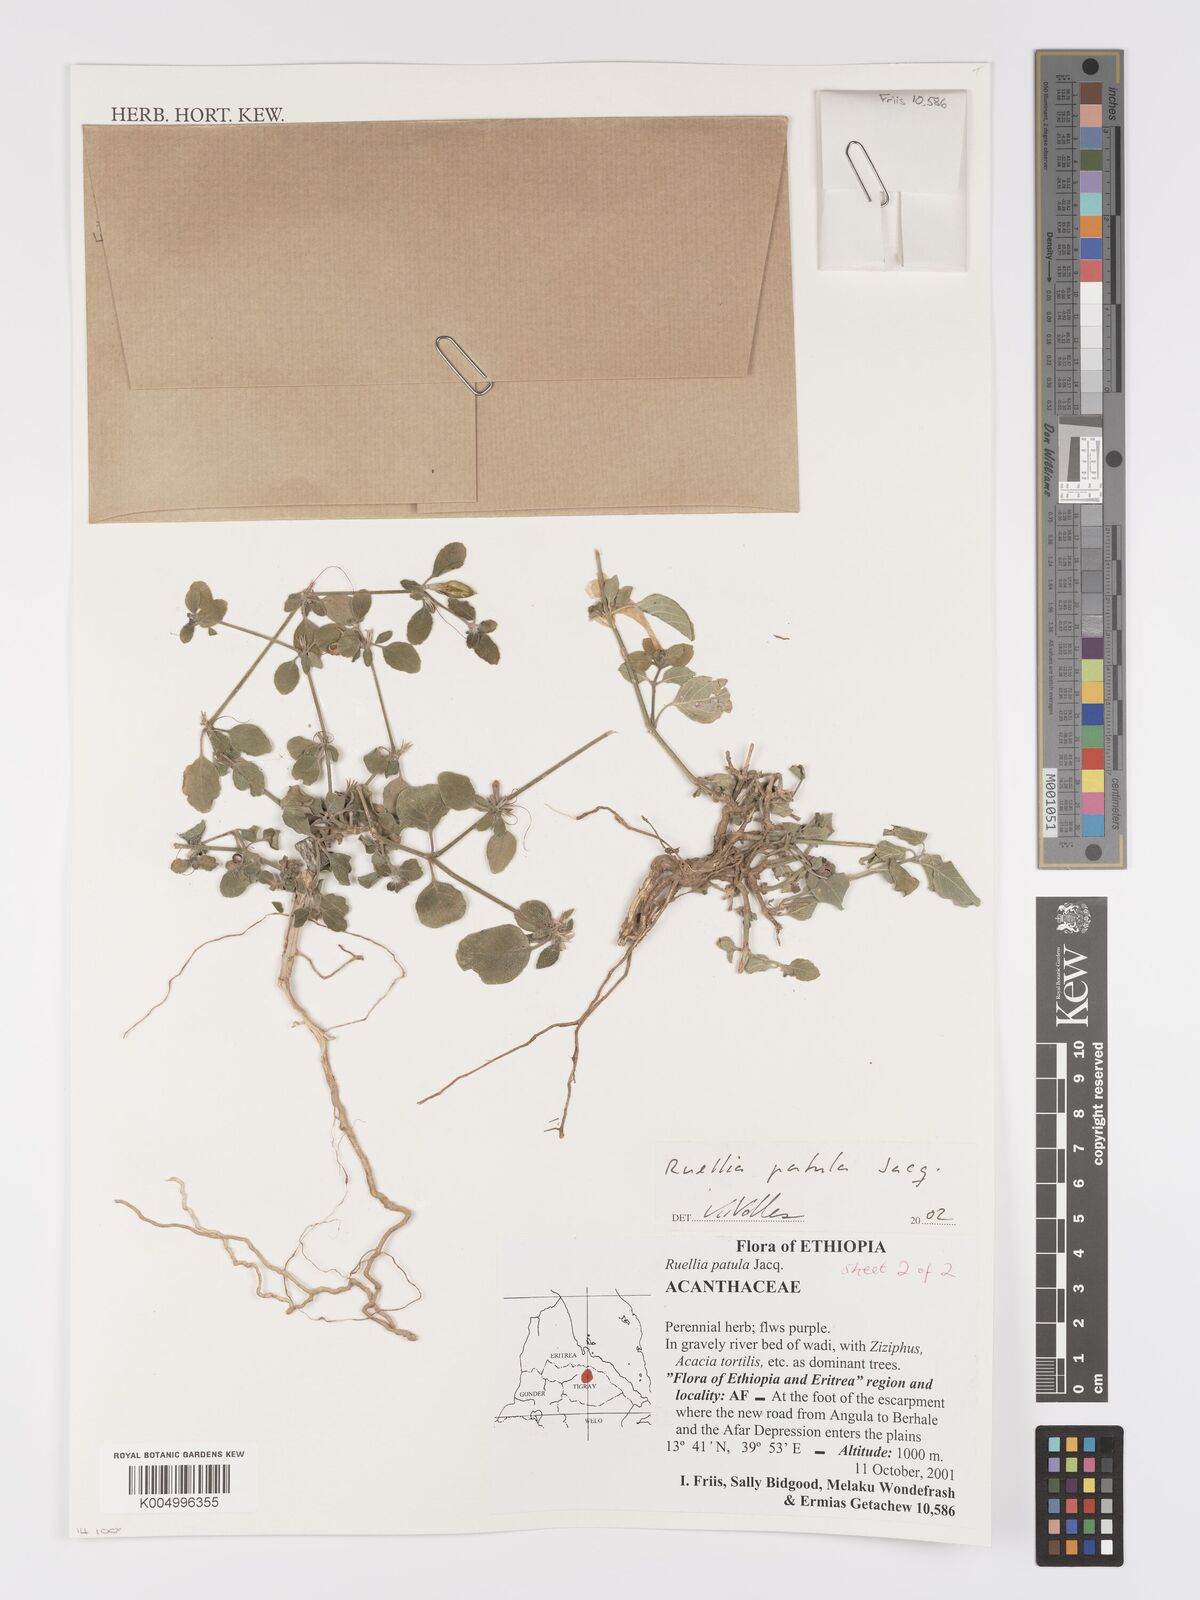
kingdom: Plantae
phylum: Tracheophyta
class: Magnoliopsida
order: Lamiales
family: Acanthaceae
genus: Ruellia
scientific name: Ruellia patula
